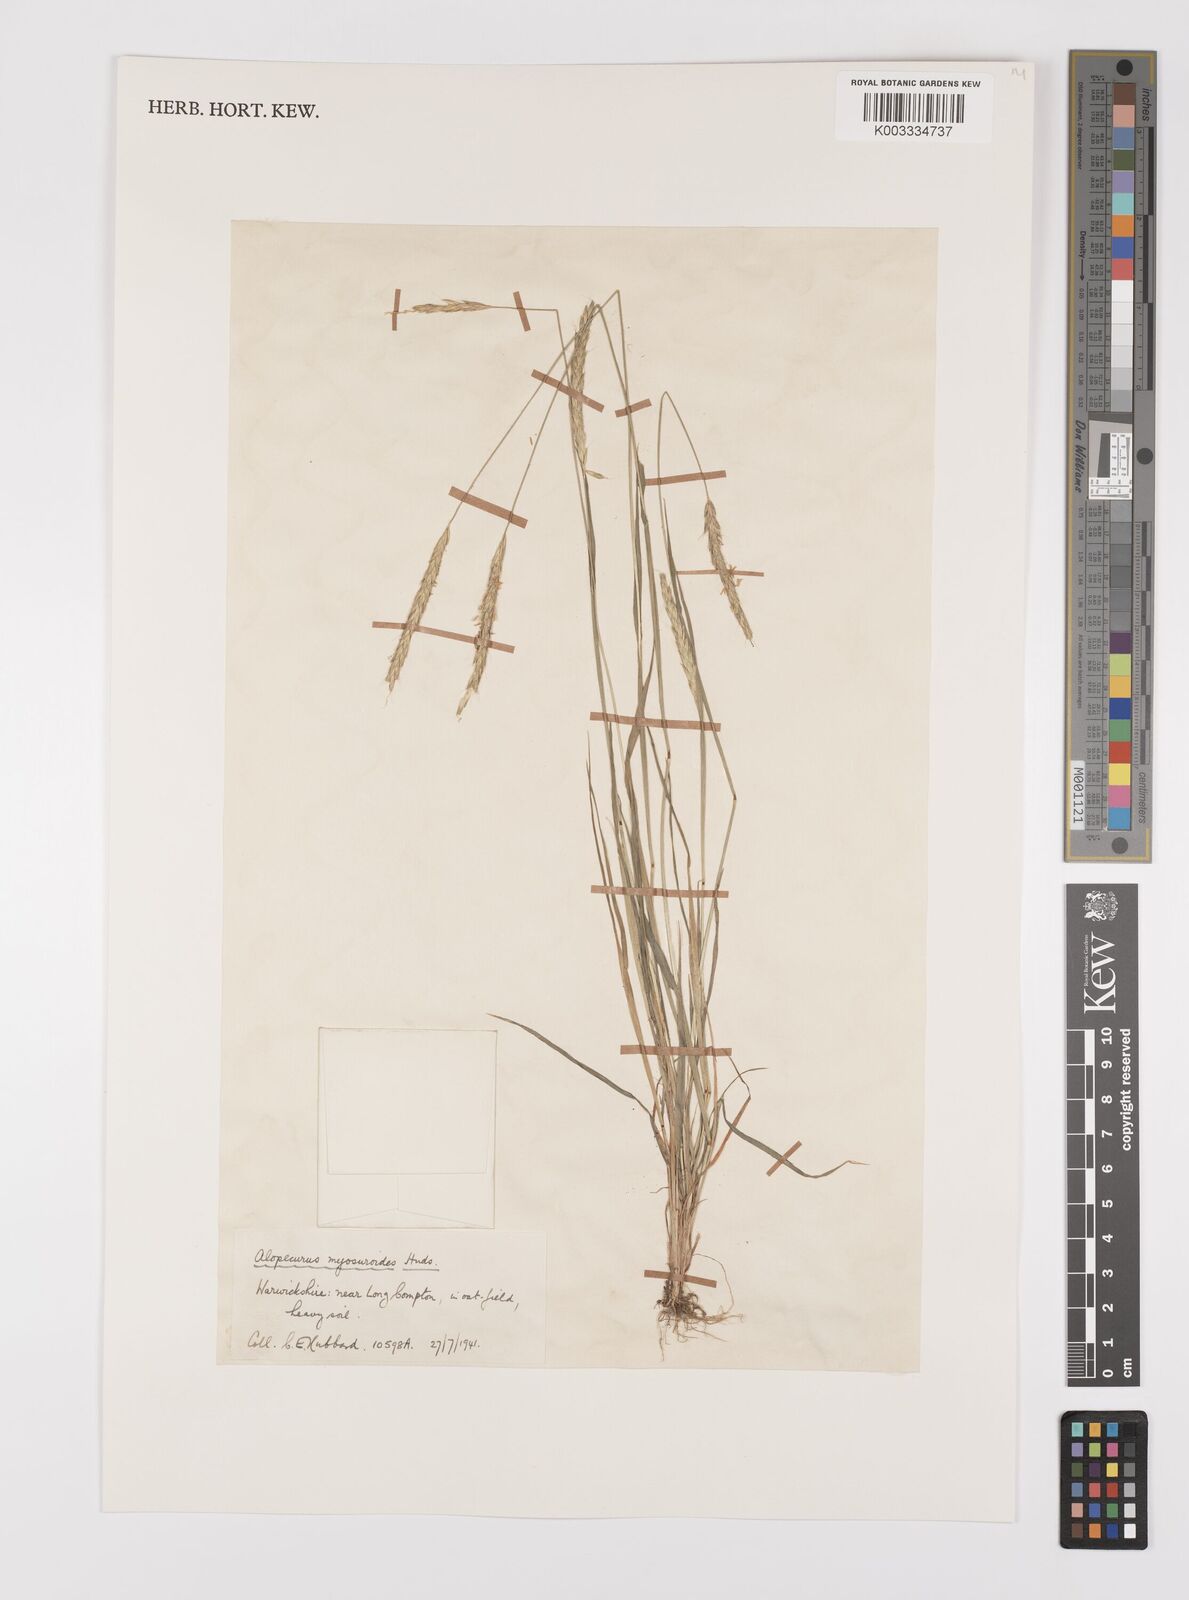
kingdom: Plantae
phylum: Tracheophyta
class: Liliopsida
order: Poales
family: Poaceae
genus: Alopecurus
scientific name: Alopecurus myosuroides
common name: Black-grass
